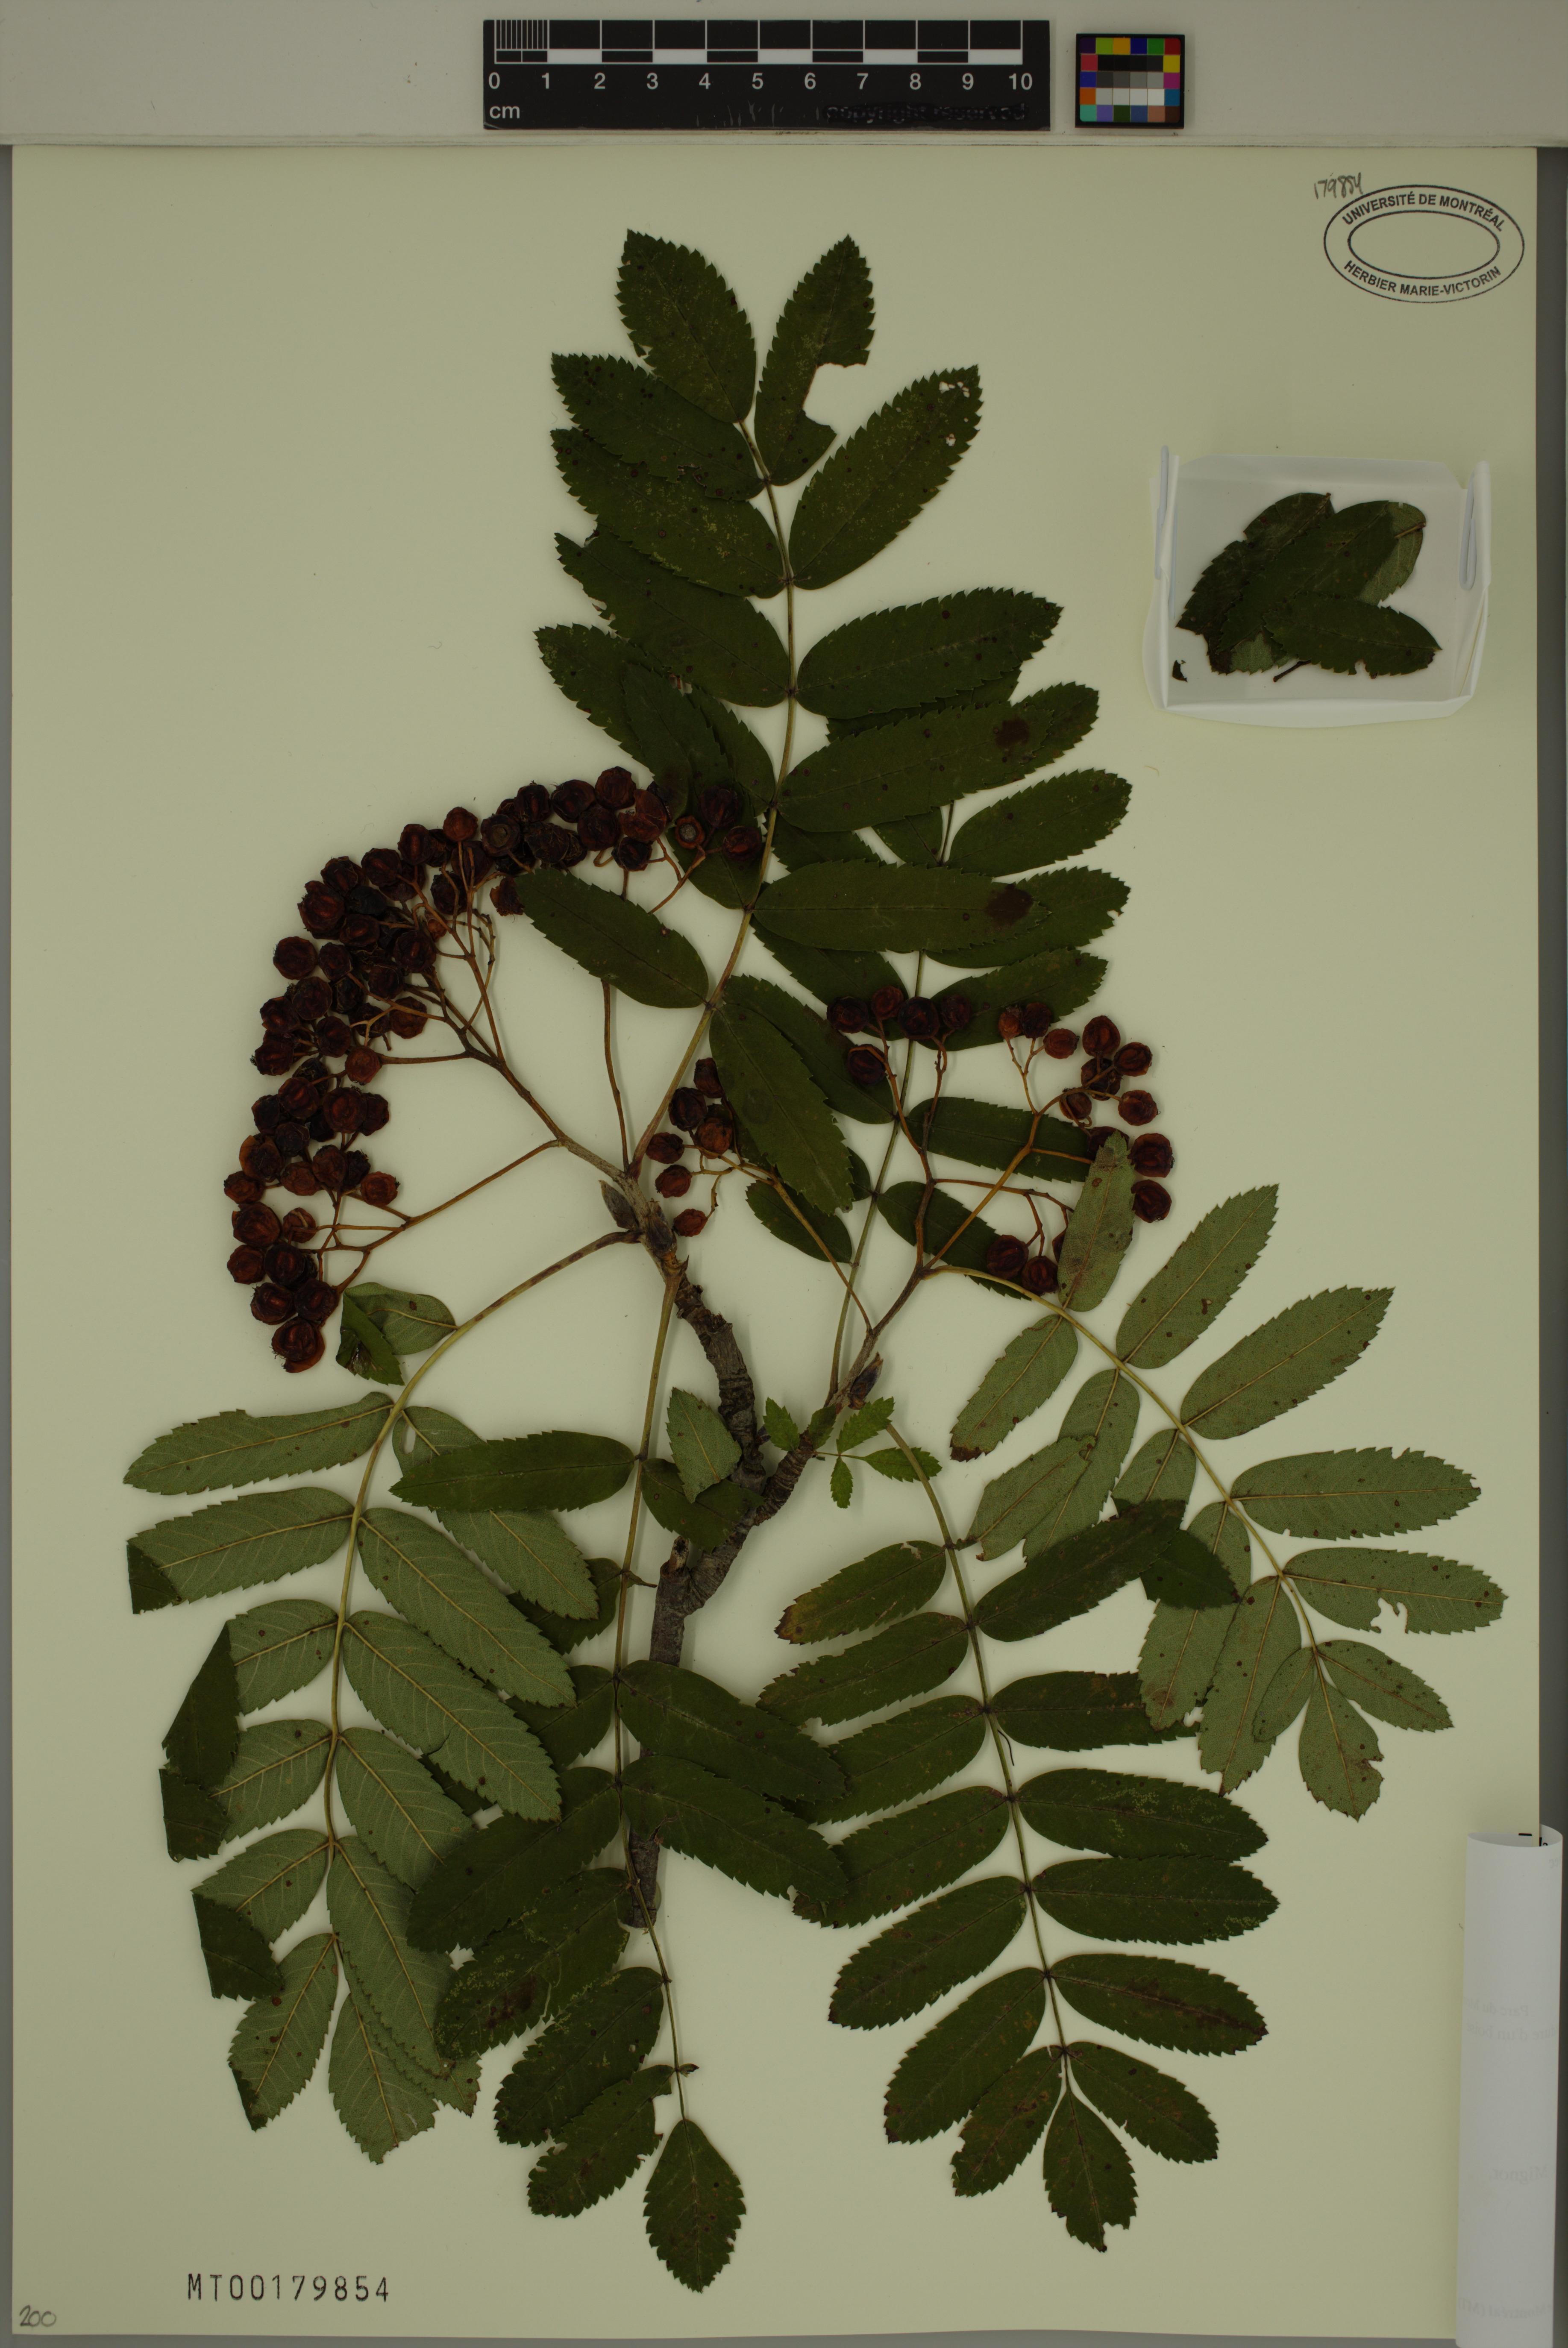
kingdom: Plantae
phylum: Tracheophyta
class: Magnoliopsida
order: Rosales
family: Rosaceae
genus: Sorbus
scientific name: Sorbus aucuparia
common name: Rowan
